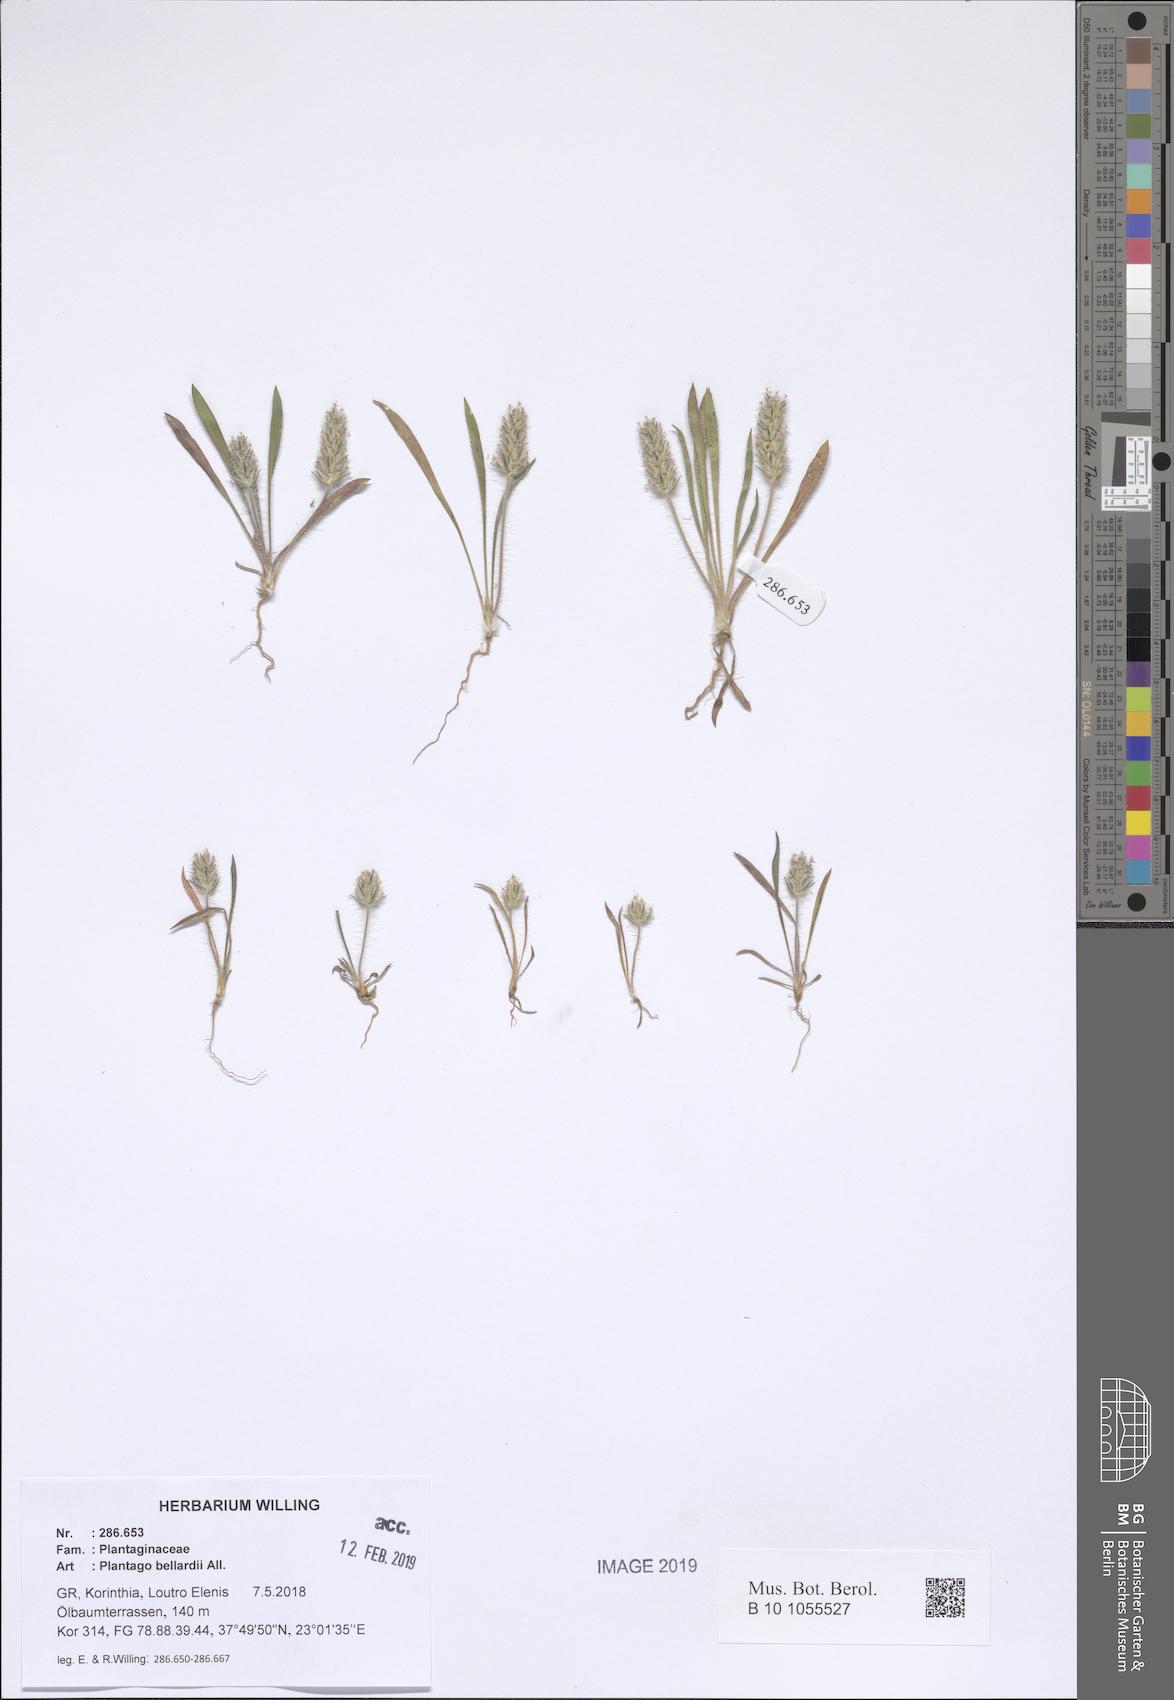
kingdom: Plantae
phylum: Tracheophyta
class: Magnoliopsida
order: Lamiales
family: Plantaginaceae
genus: Plantago
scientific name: Plantago bellardii
